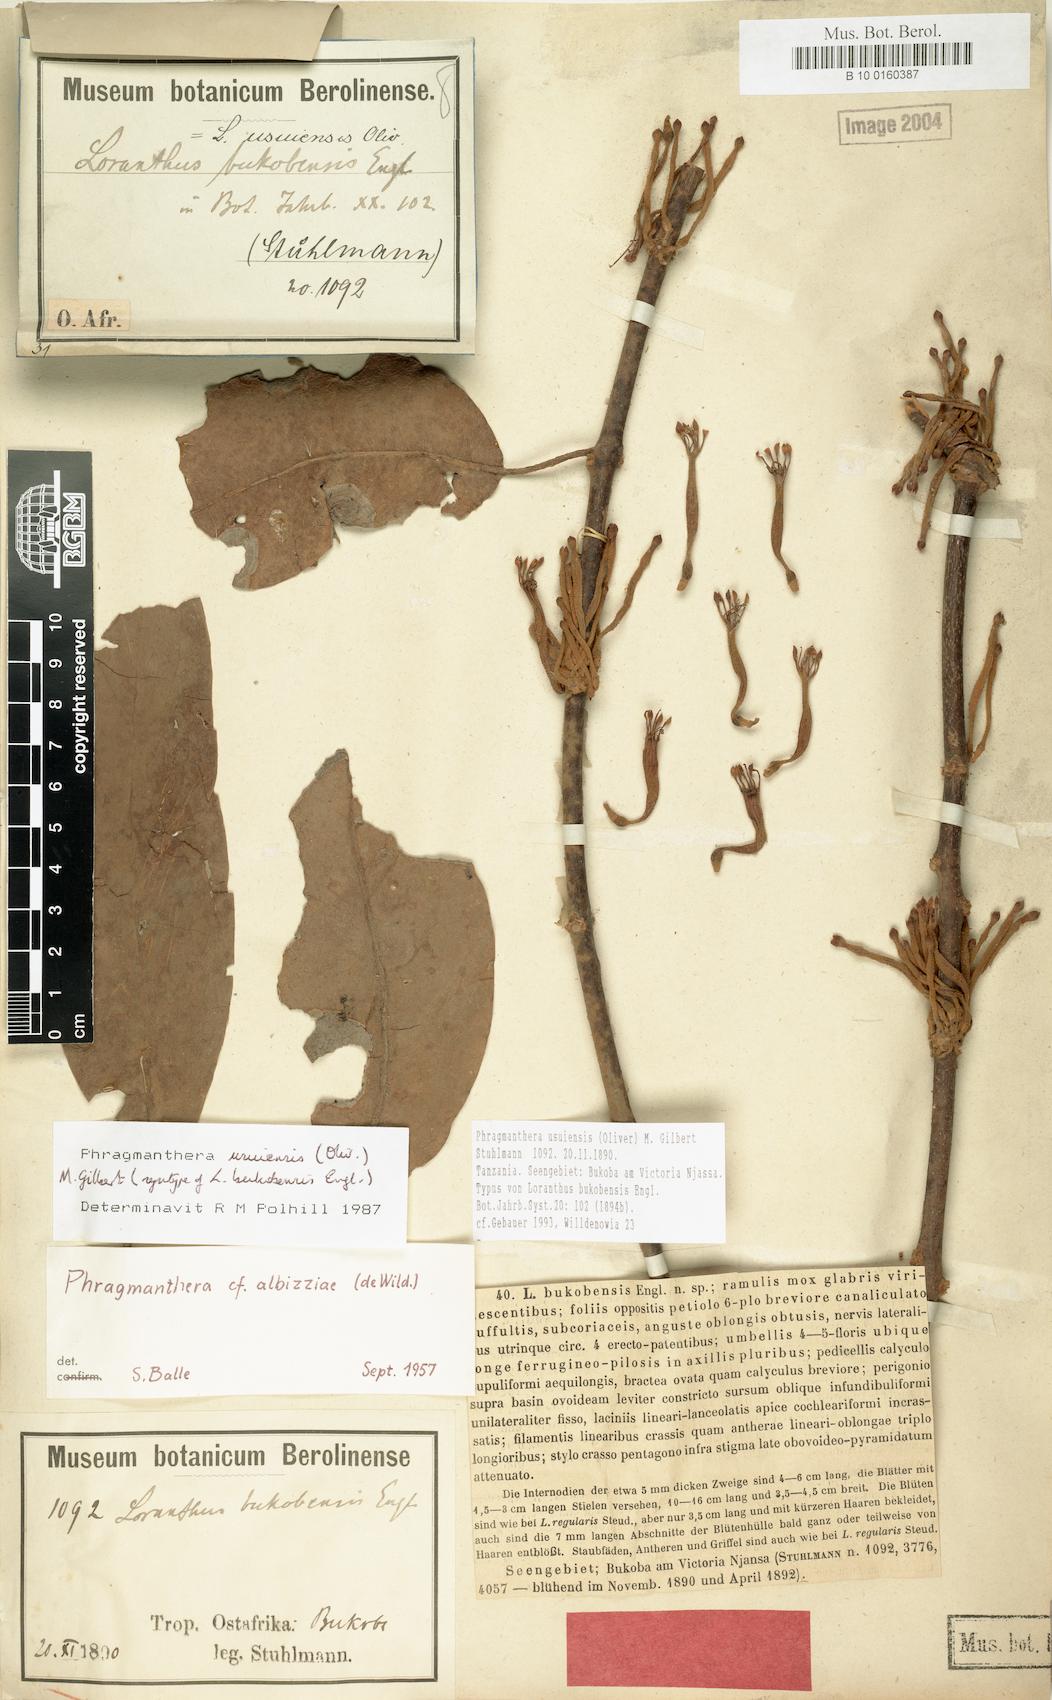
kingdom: Plantae
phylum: Tracheophyta
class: Magnoliopsida
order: Santalales
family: Loranthaceae
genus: Phragmanthera
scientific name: Phragmanthera usuiensis
